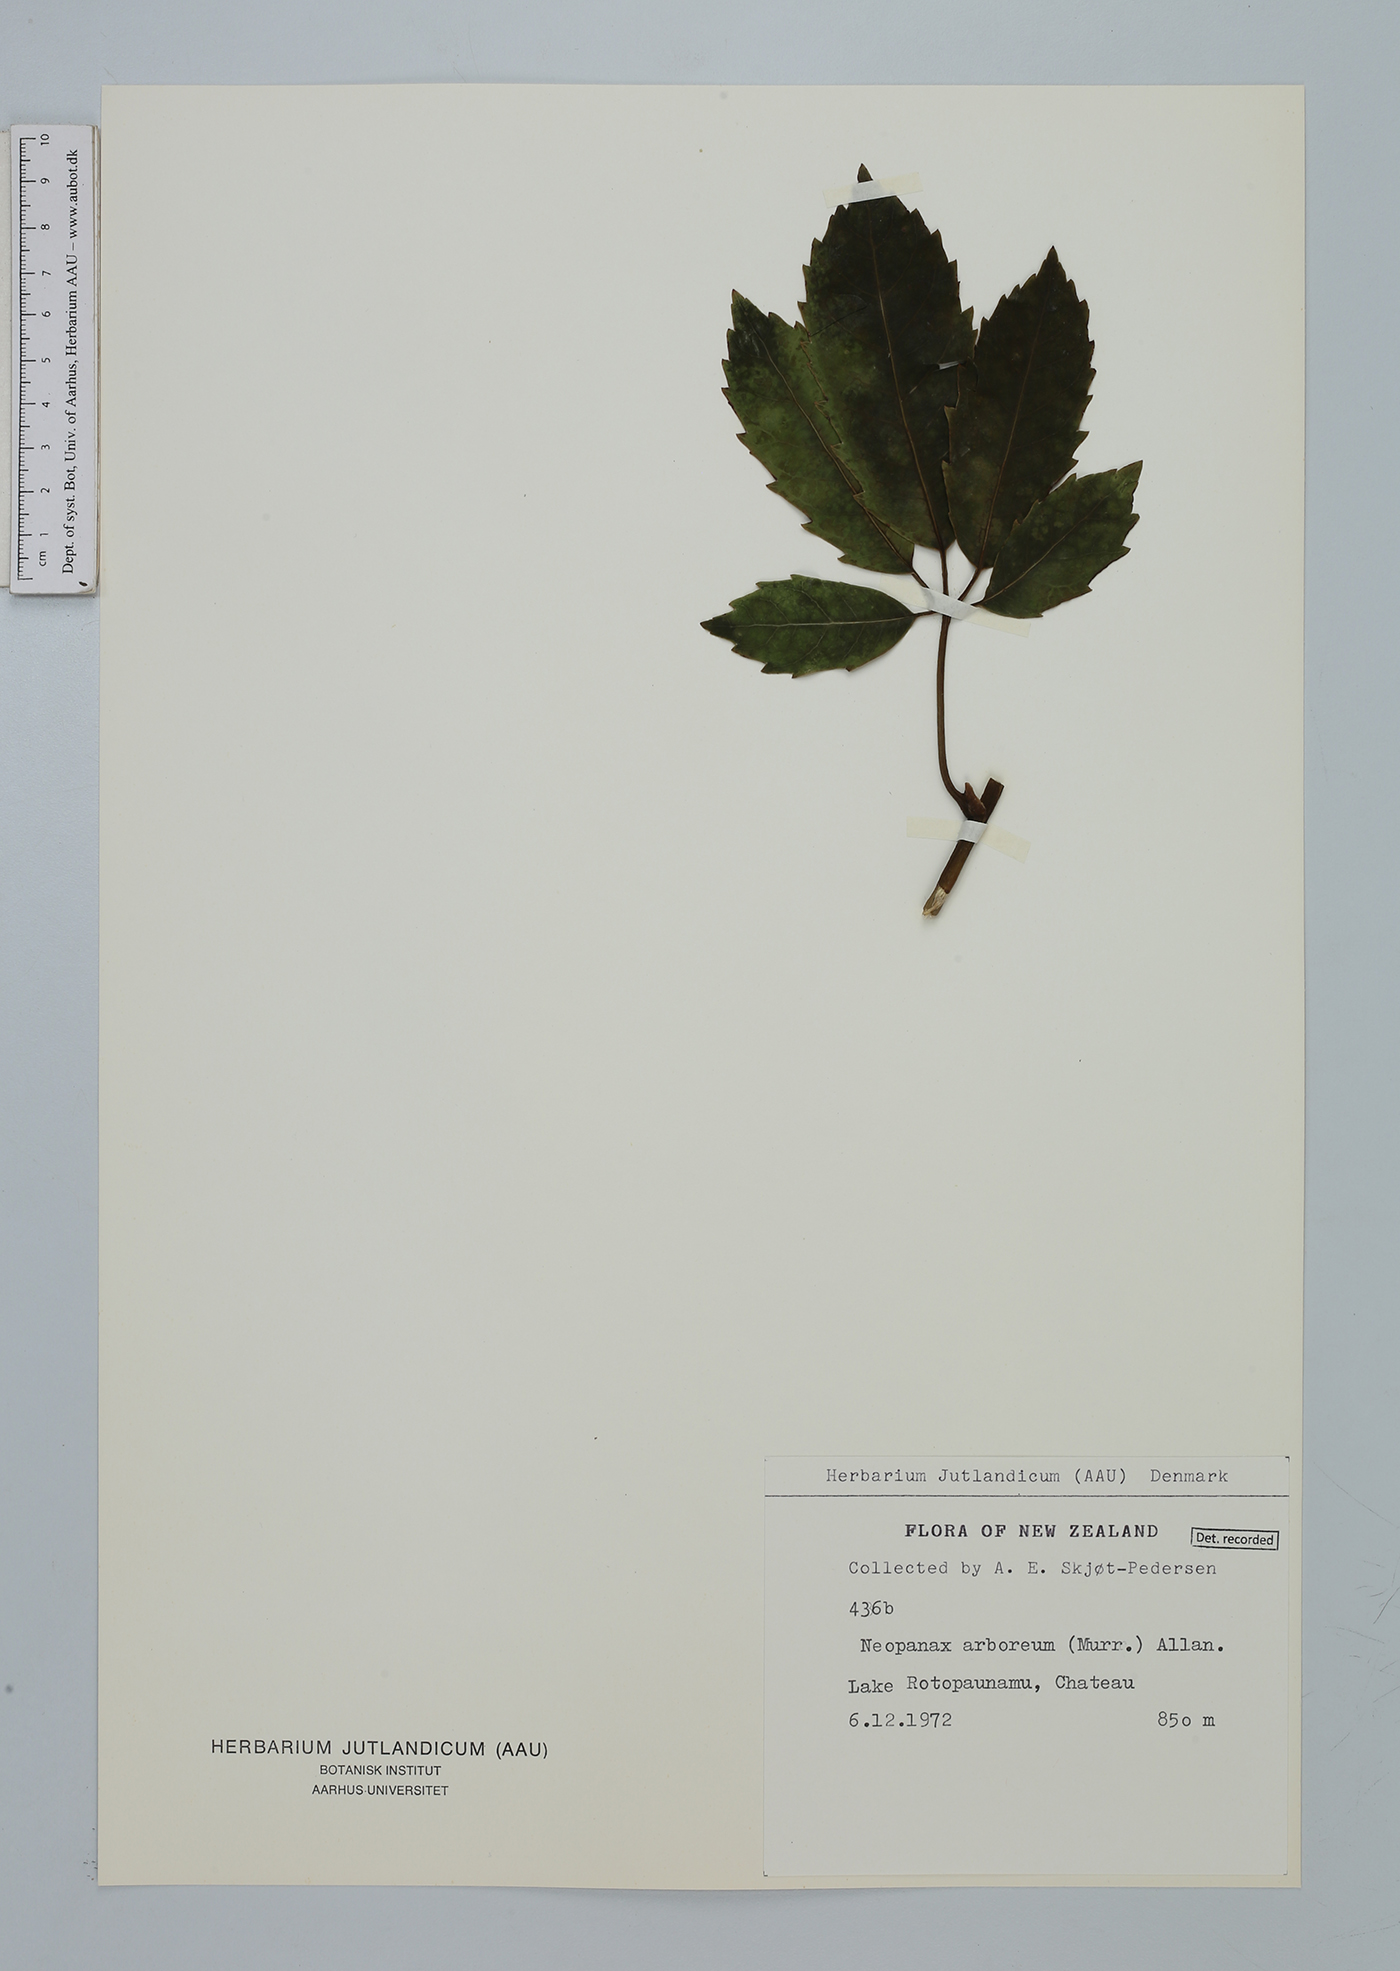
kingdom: Plantae
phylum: Tracheophyta
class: Magnoliopsida
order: Apiales
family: Araliaceae
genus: Neopanax
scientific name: Neopanax arboreus
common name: Five-fingers
